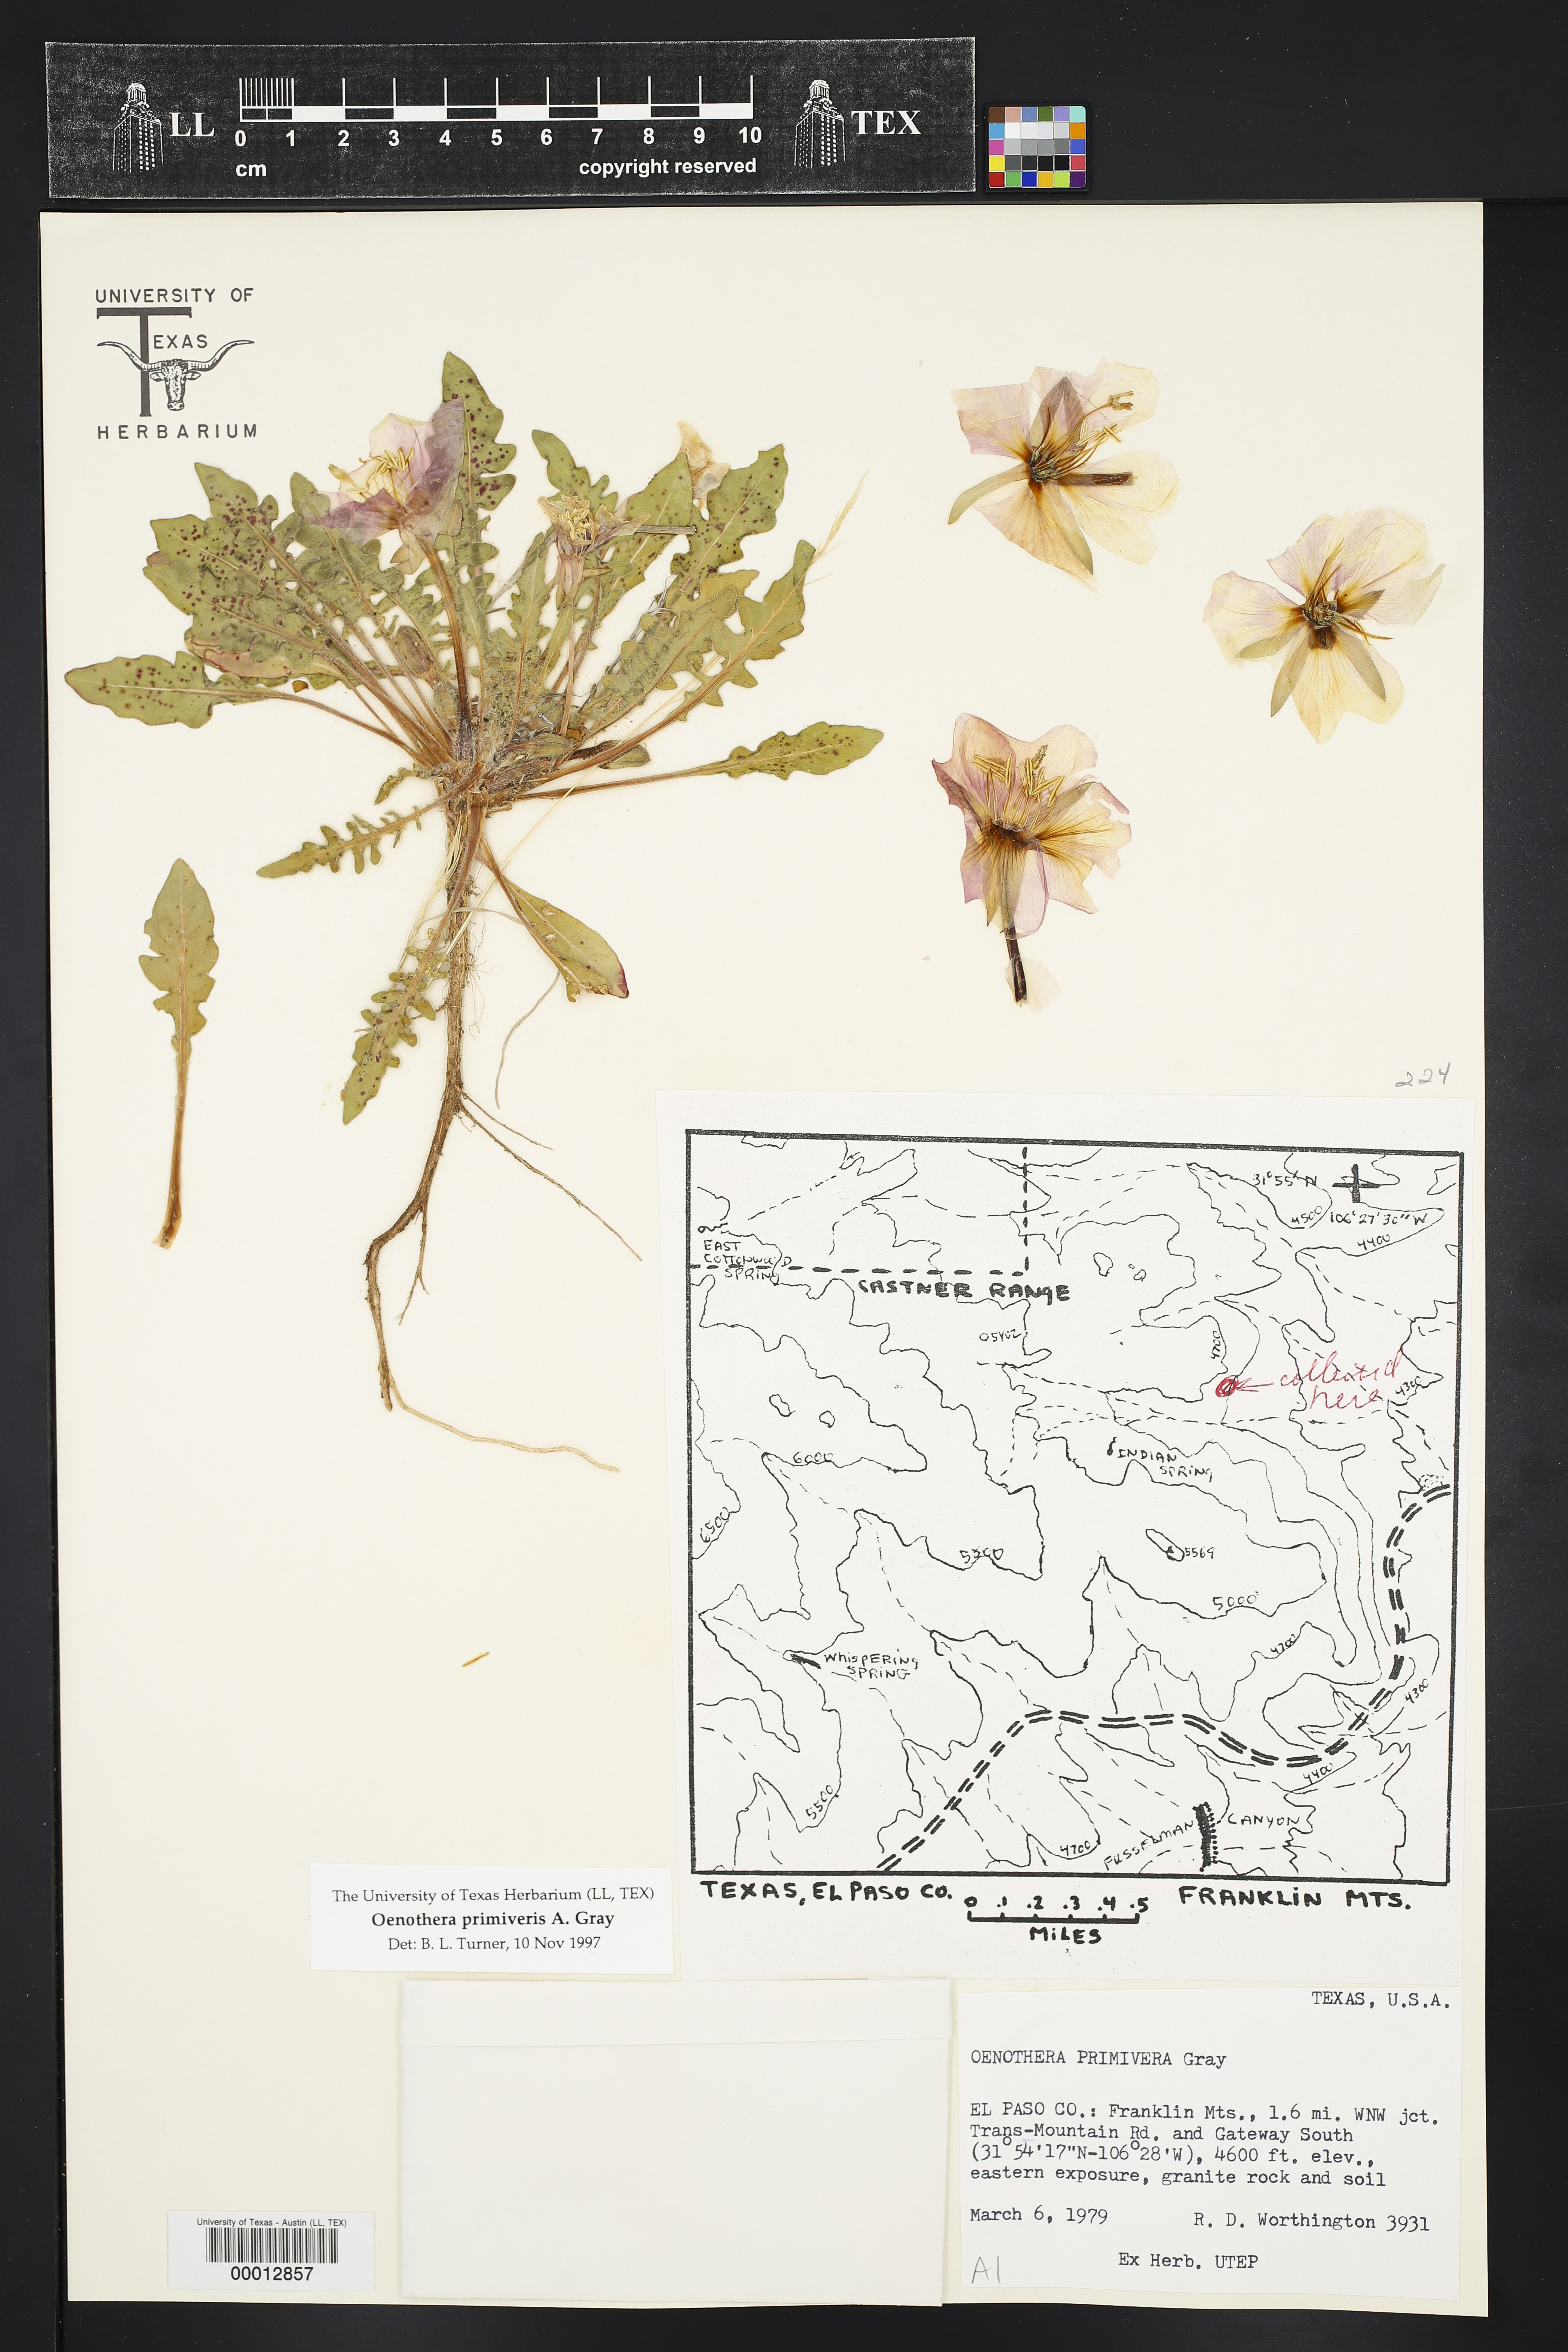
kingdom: Plantae
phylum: Tracheophyta
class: Magnoliopsida
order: Myrtales
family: Onagraceae
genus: Oenothera
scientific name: Oenothera primiveris
